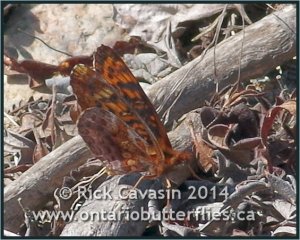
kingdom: Animalia
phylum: Arthropoda
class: Insecta
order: Lepidoptera
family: Nymphalidae
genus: Clossiana
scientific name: Clossiana toddi
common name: Meadow Fritillary
